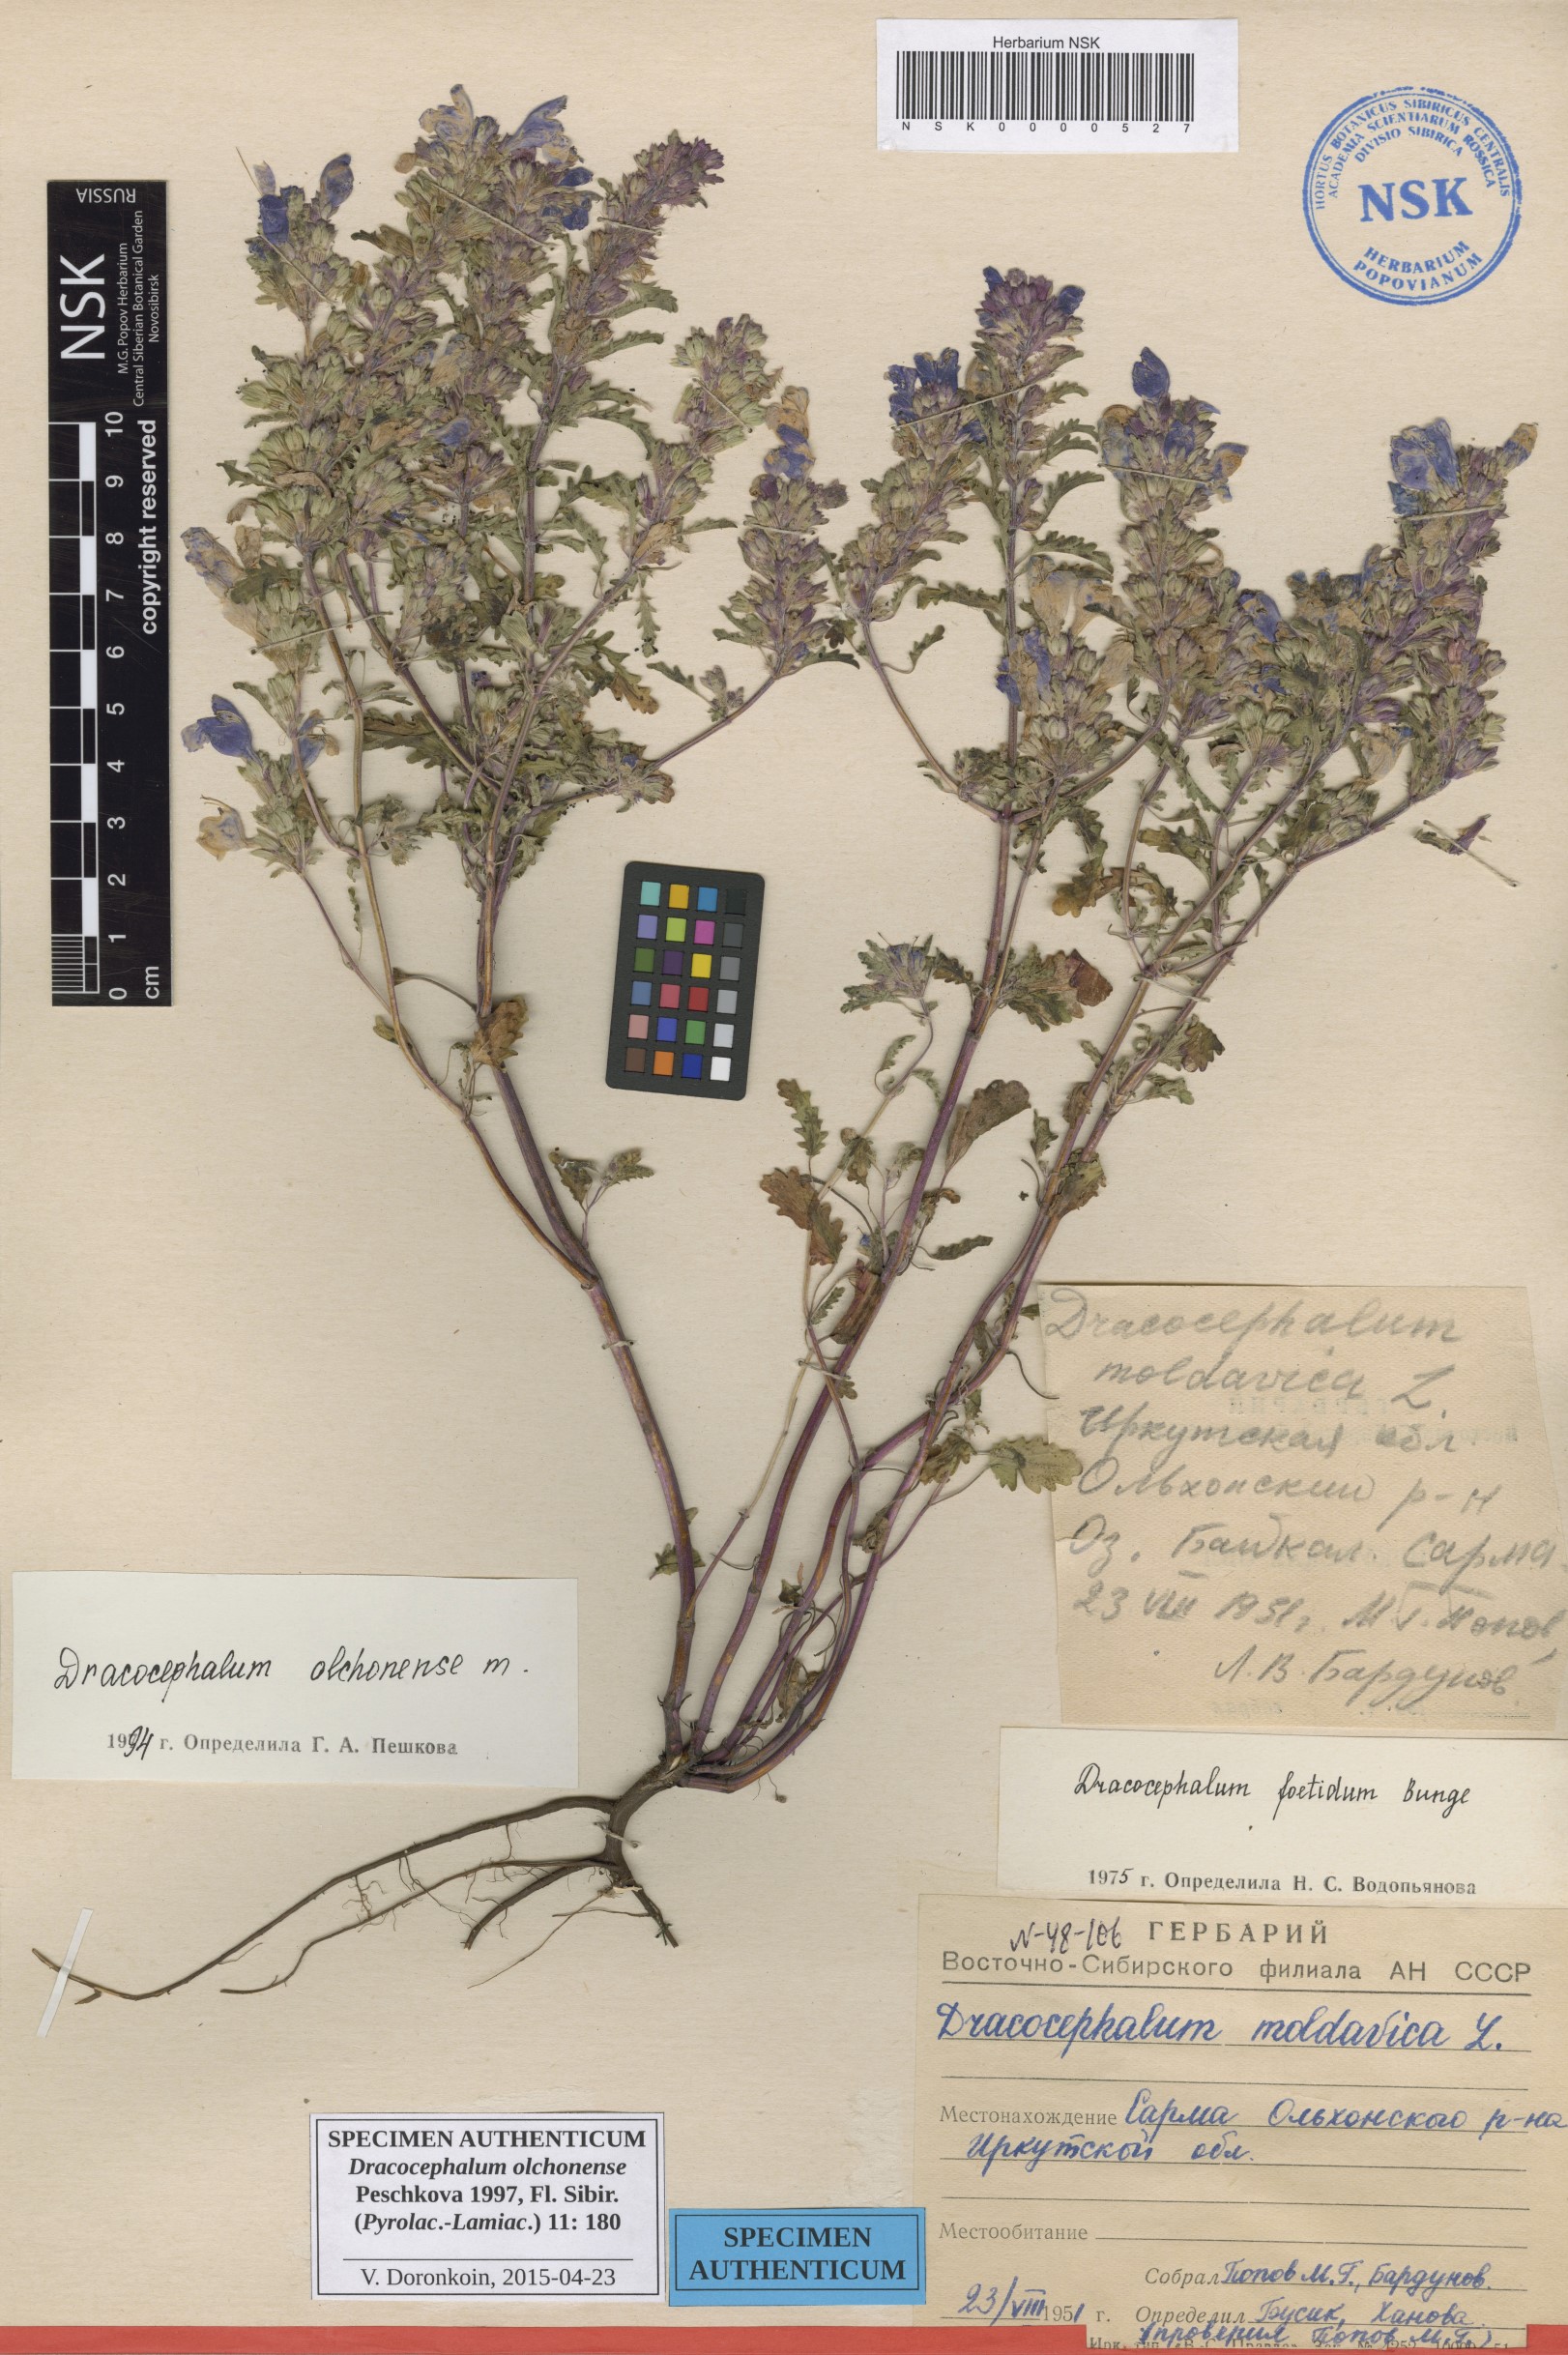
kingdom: Plantae
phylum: Tracheophyta
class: Magnoliopsida
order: Lamiales
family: Lamiaceae
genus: Dracocephalum
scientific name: Dracocephalum olchonense
